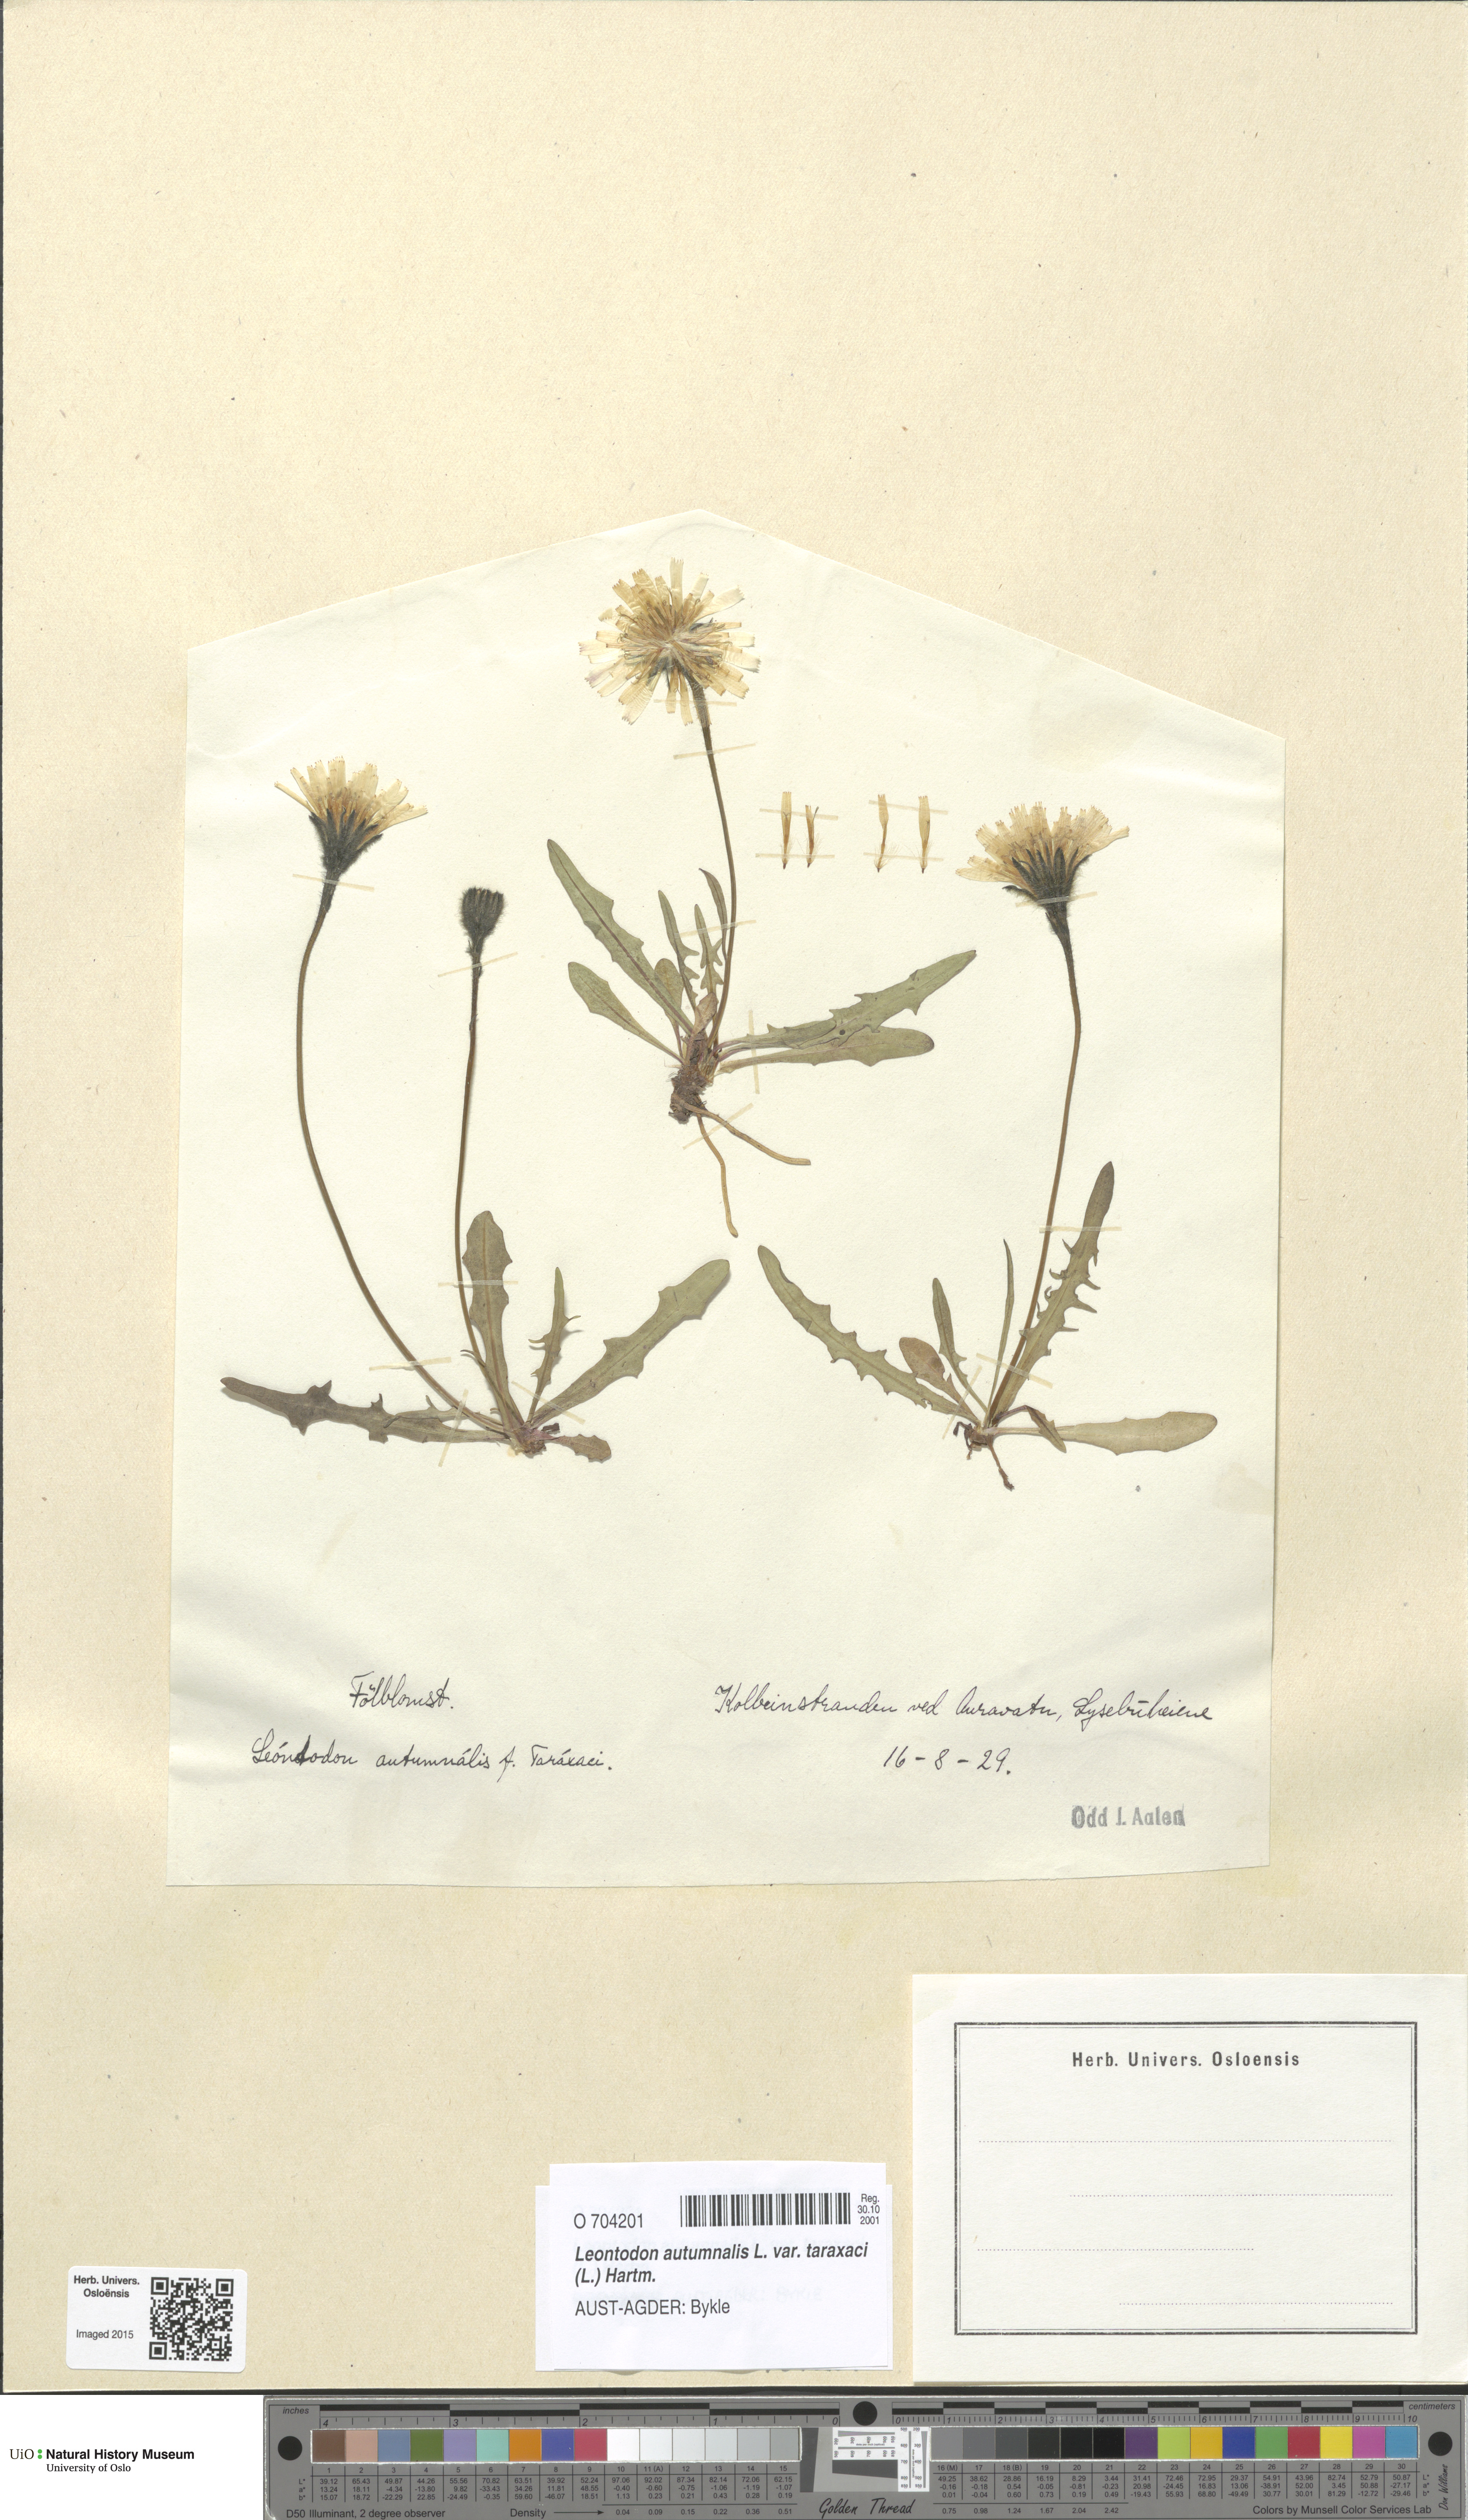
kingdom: Plantae
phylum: Tracheophyta
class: Magnoliopsida
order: Asterales
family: Asteraceae
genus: Scorzoneroides
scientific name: Scorzoneroides autumnalis
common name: Autumn hawkbit
